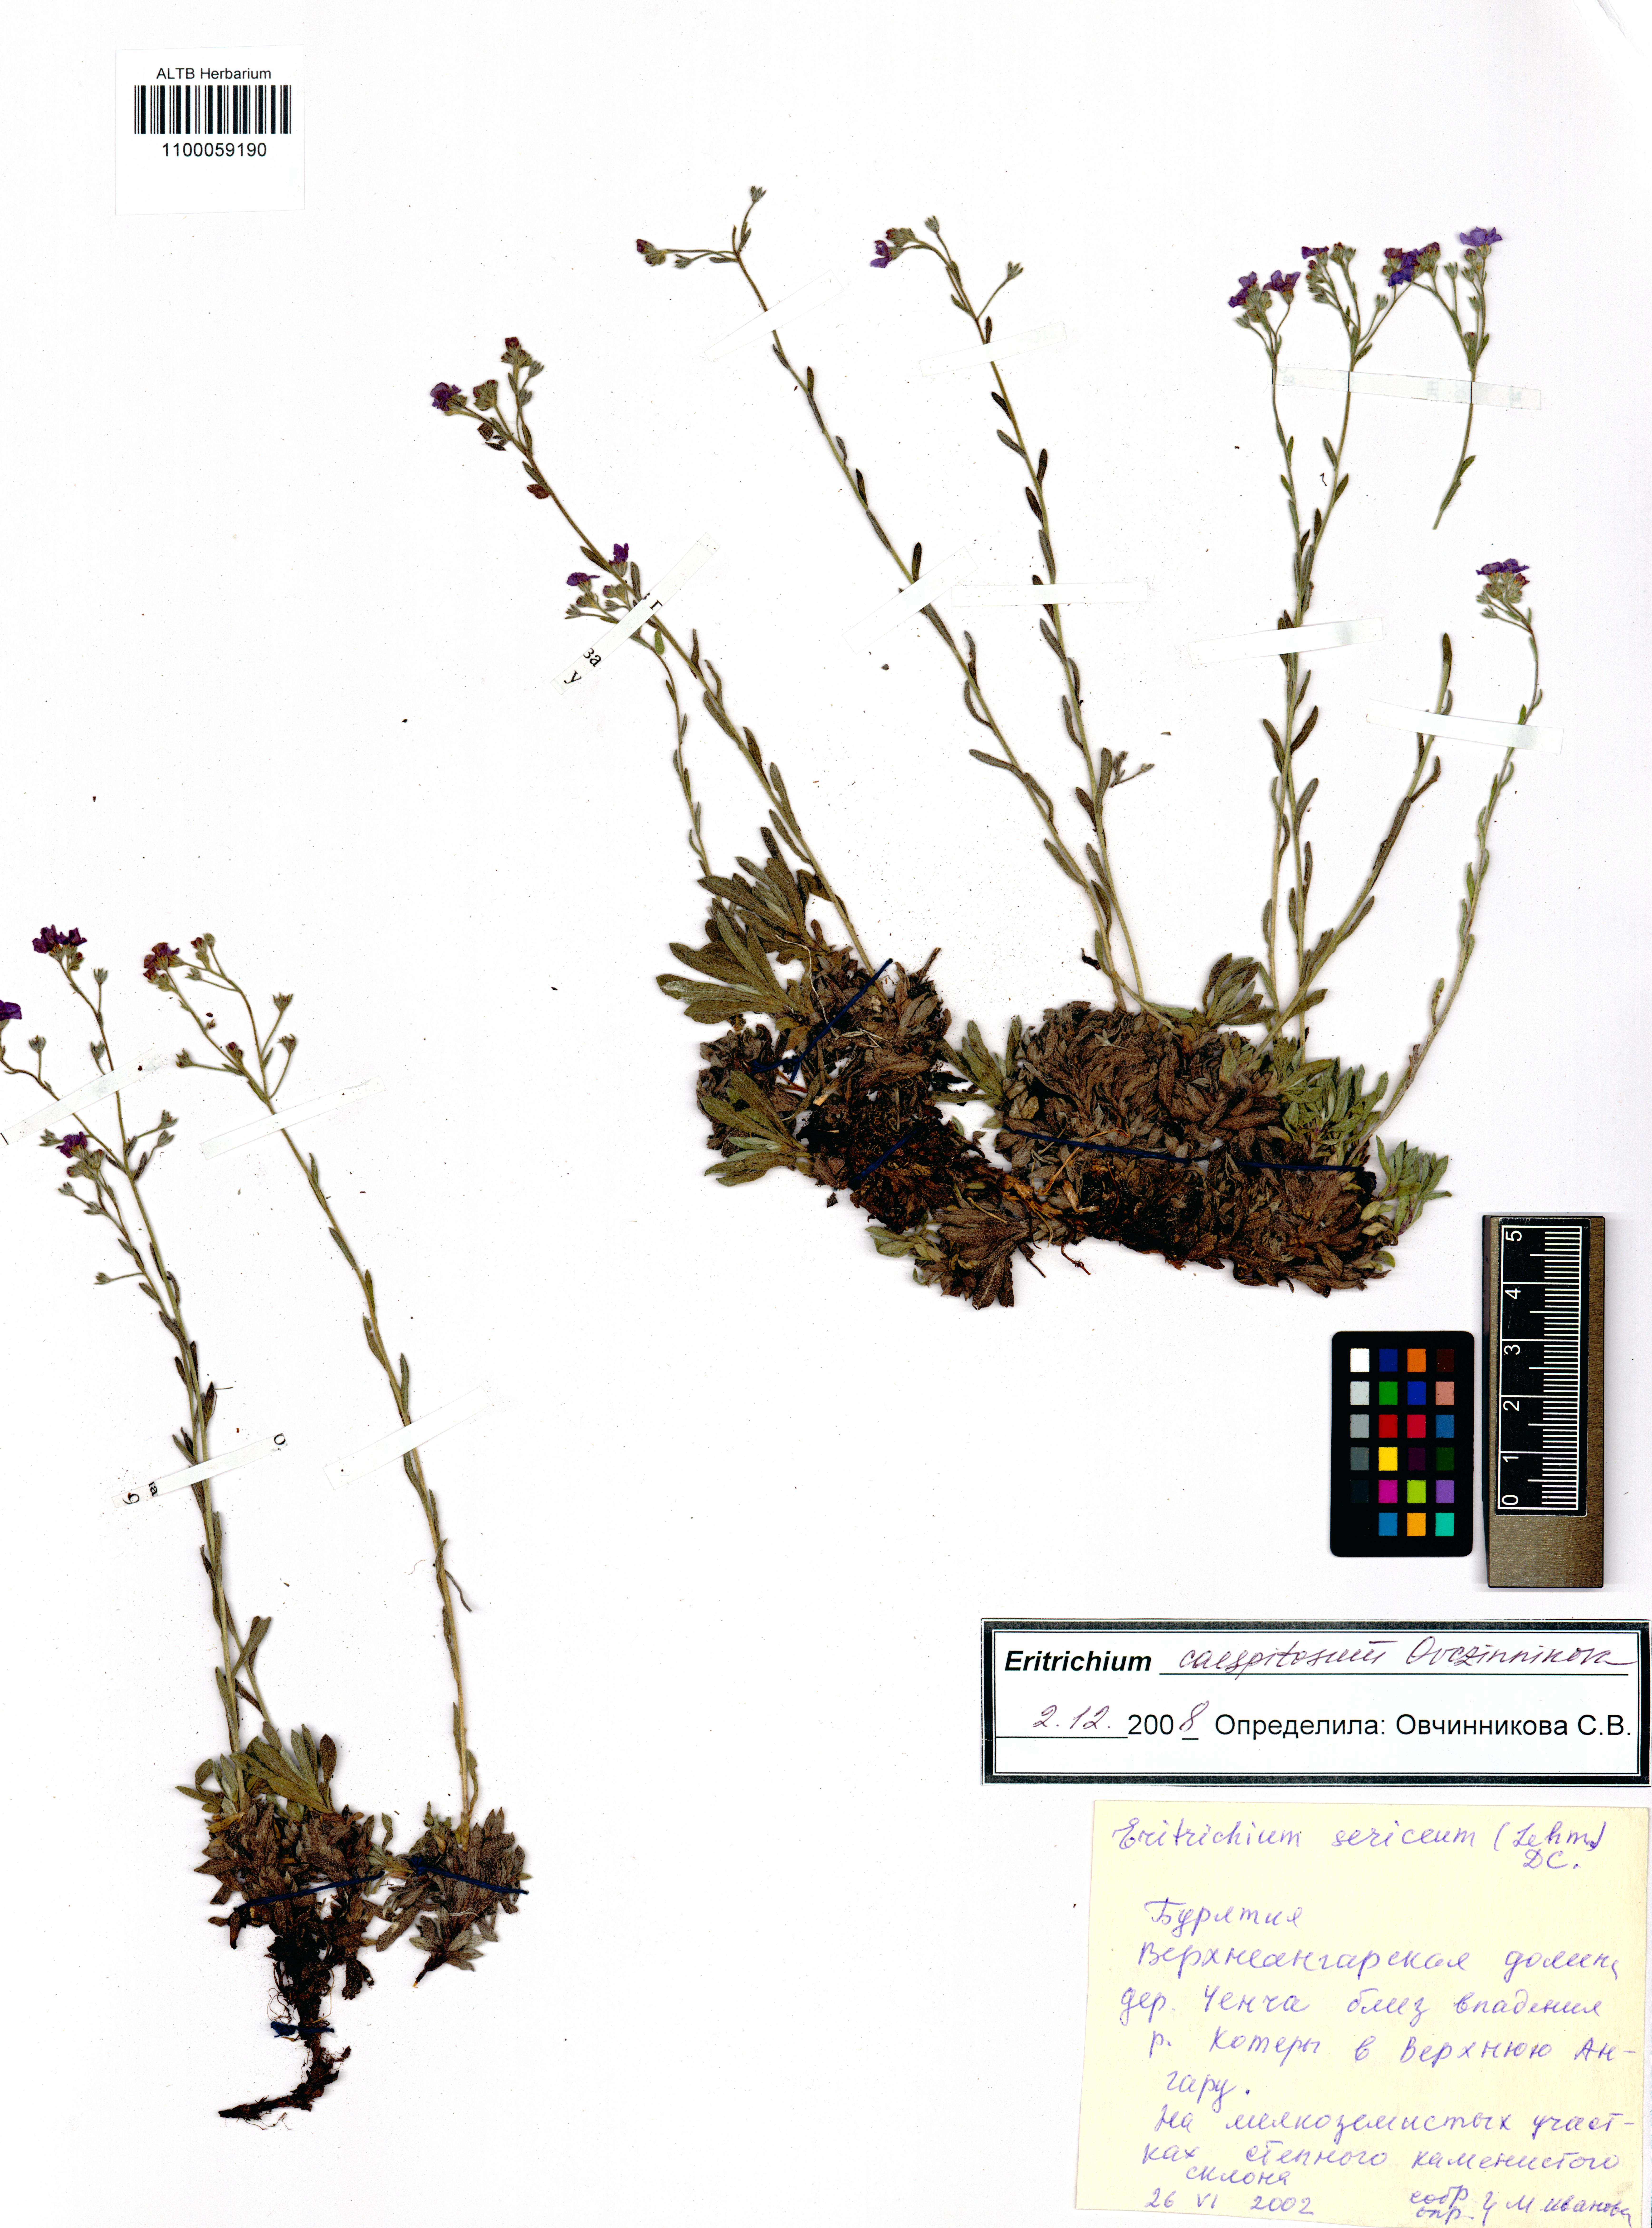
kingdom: Plantae
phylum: Tracheophyta
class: Magnoliopsida
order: Boraginales
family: Boraginaceae
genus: Eritrichium
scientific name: Eritrichium caespitosum
